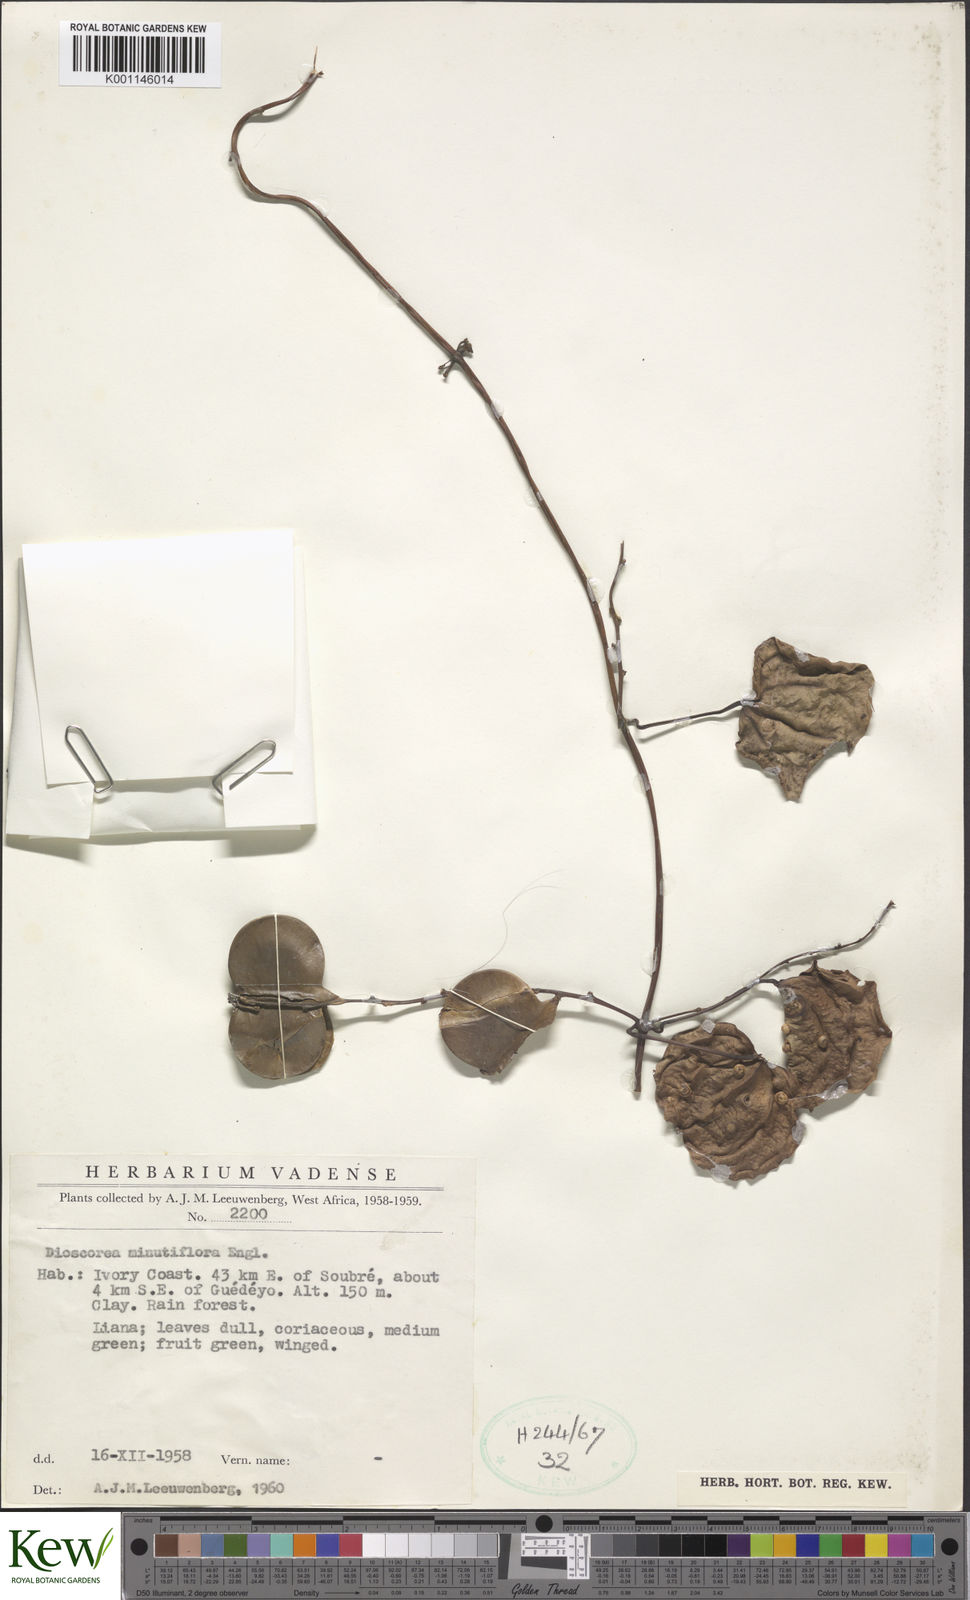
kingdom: Plantae
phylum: Tracheophyta
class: Liliopsida
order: Dioscoreales
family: Dioscoreaceae
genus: Dioscorea
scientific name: Dioscorea minutiflora
